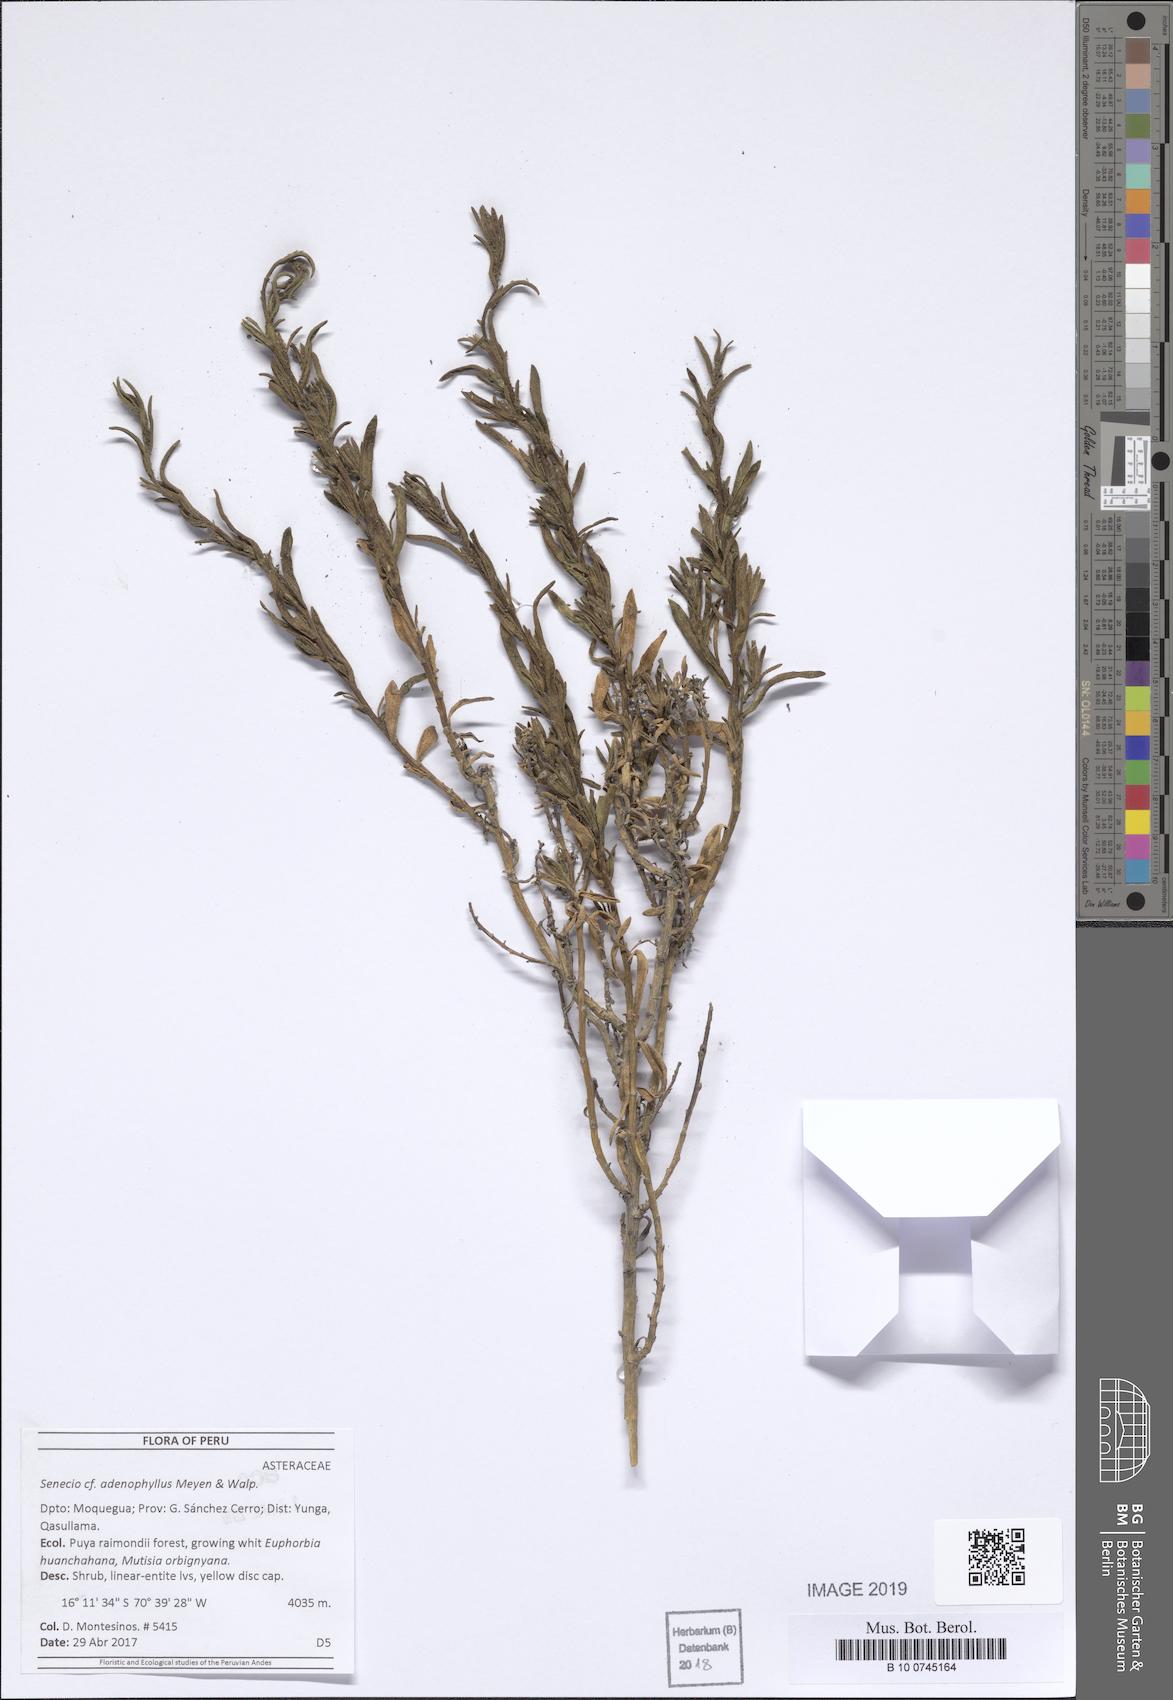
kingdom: Plantae
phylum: Tracheophyta
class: Magnoliopsida
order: Asterales
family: Asteraceae
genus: Senecio
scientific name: Senecio adenophyllus
